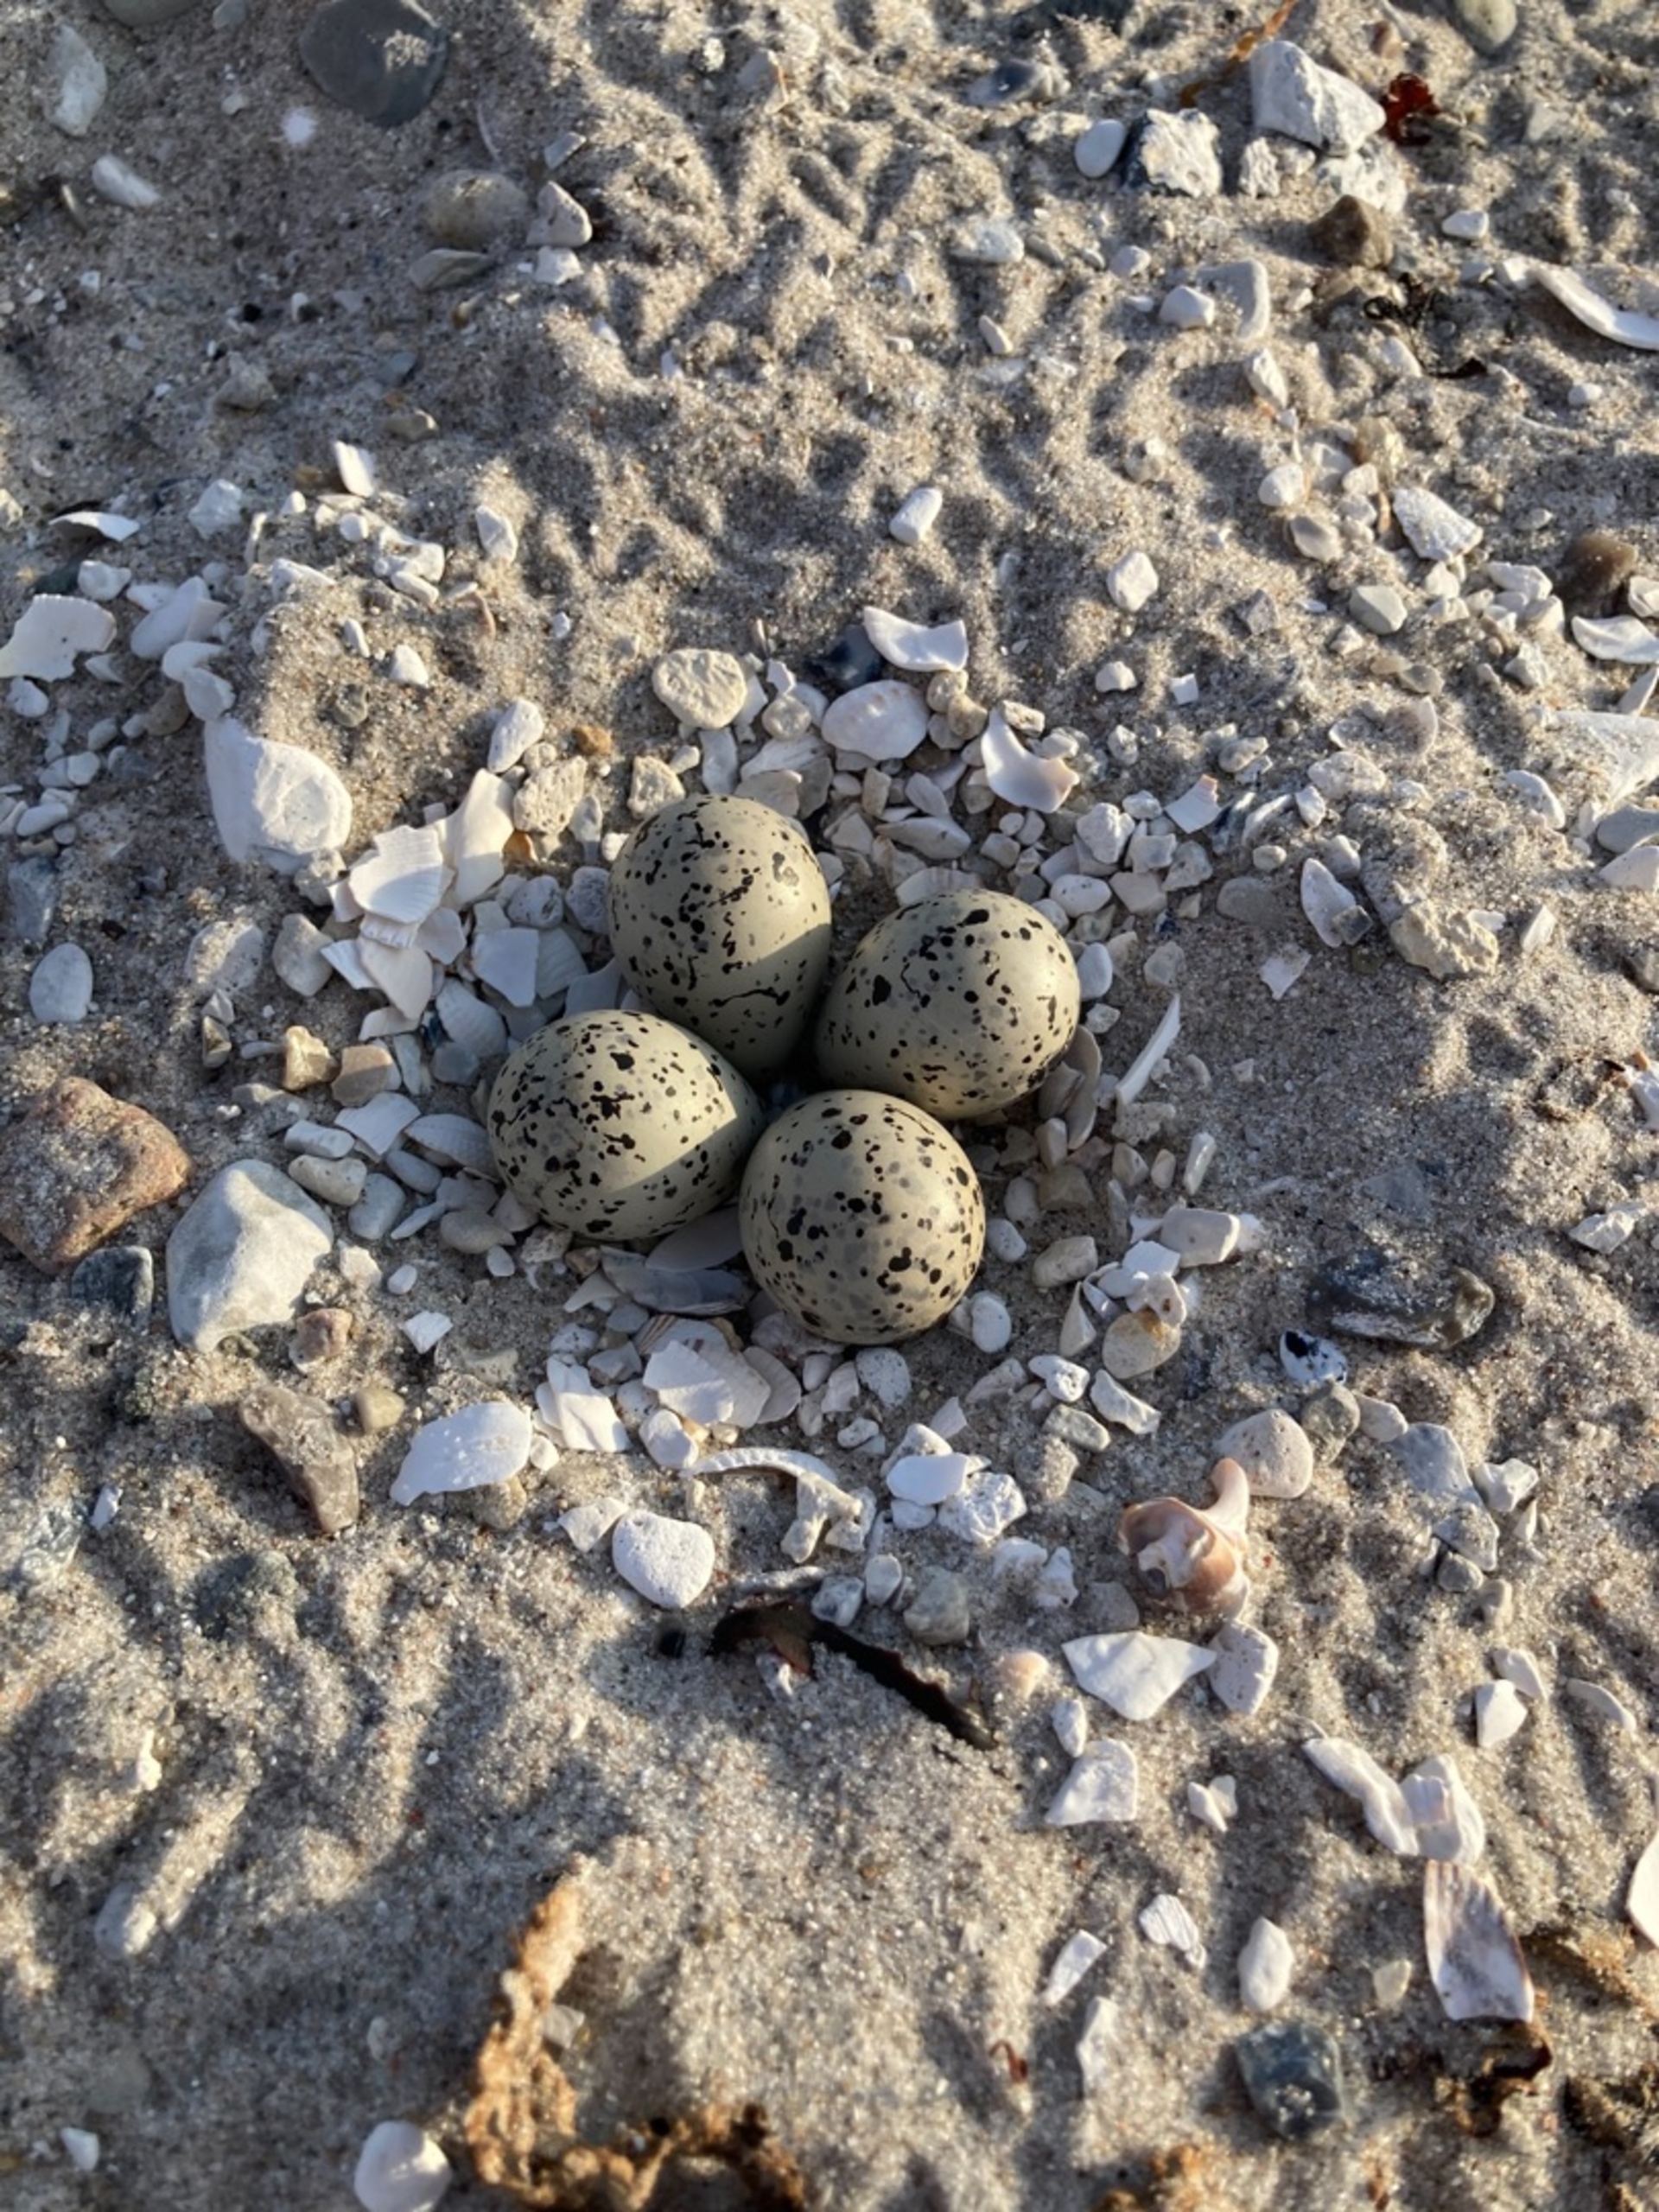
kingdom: Animalia
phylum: Chordata
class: Aves
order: Charadriiformes
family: Charadriidae
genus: Charadrius
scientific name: Charadrius hiaticula
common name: Stor præstekrave
